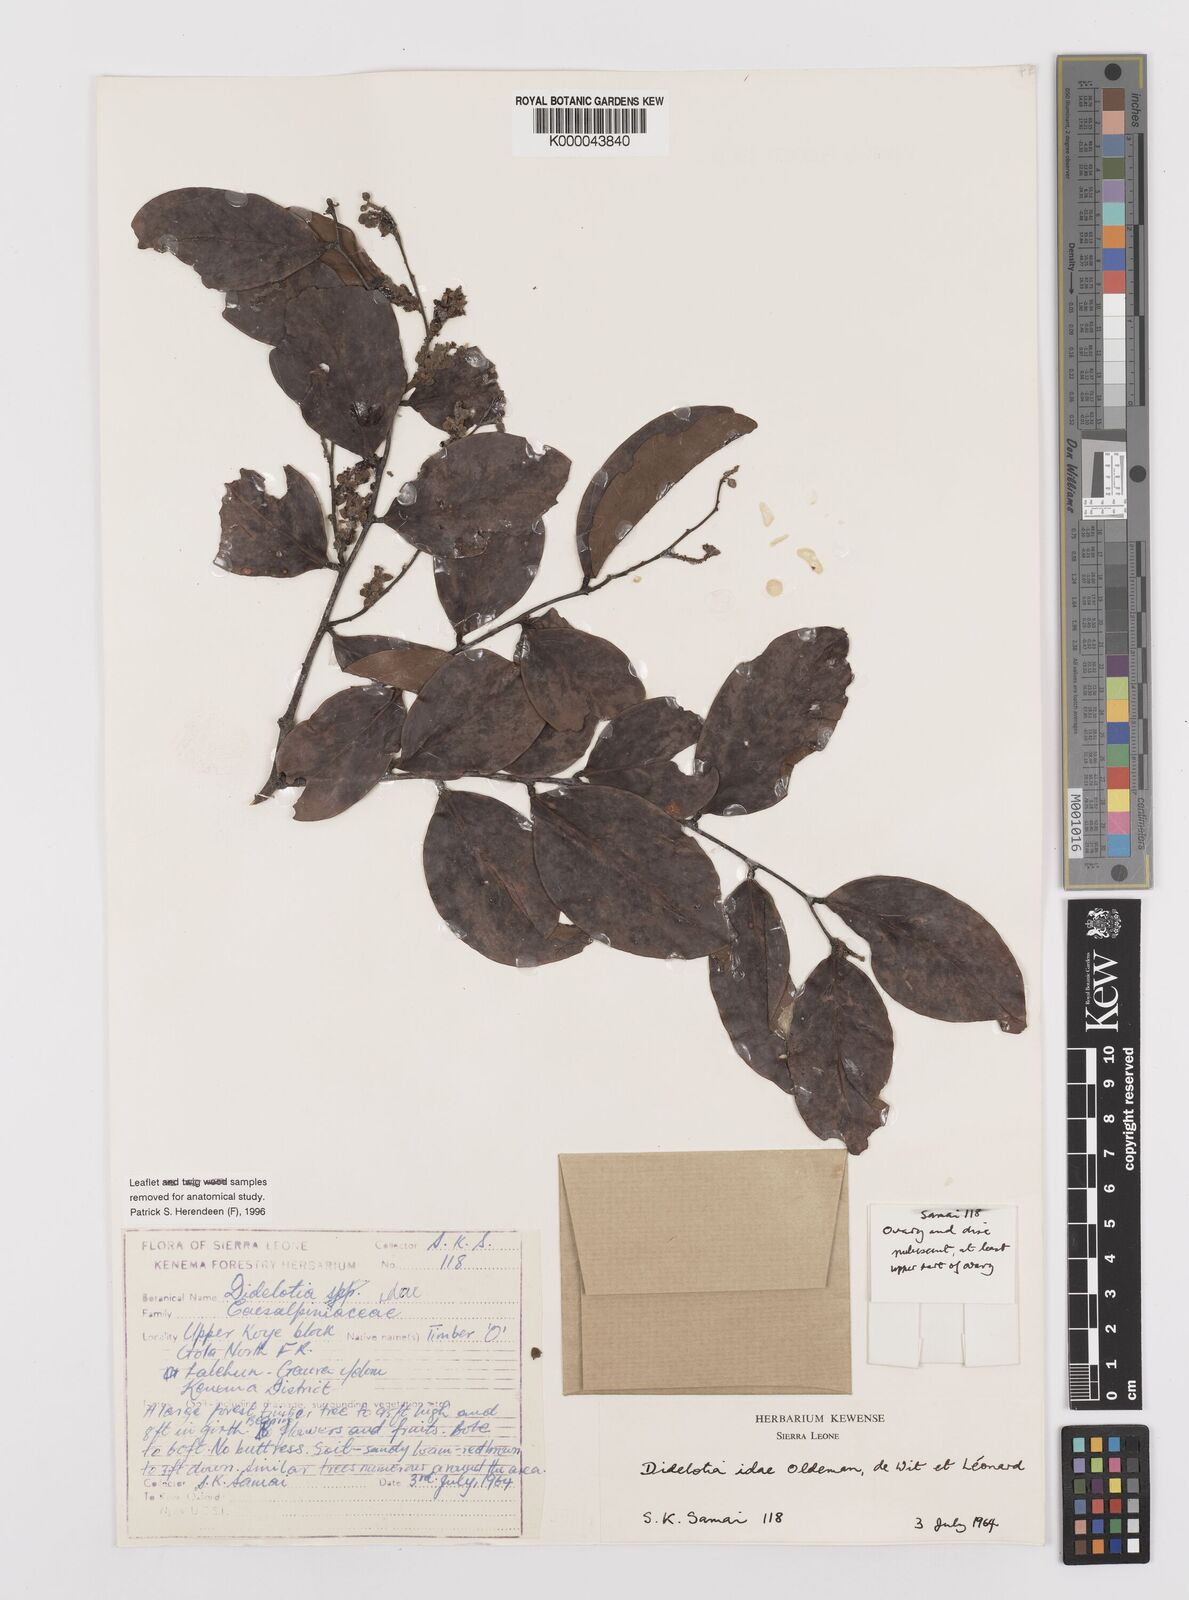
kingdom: Plantae
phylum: Tracheophyta
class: Magnoliopsida
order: Fabales
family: Fabaceae
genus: Didelotia
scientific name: Didelotia
